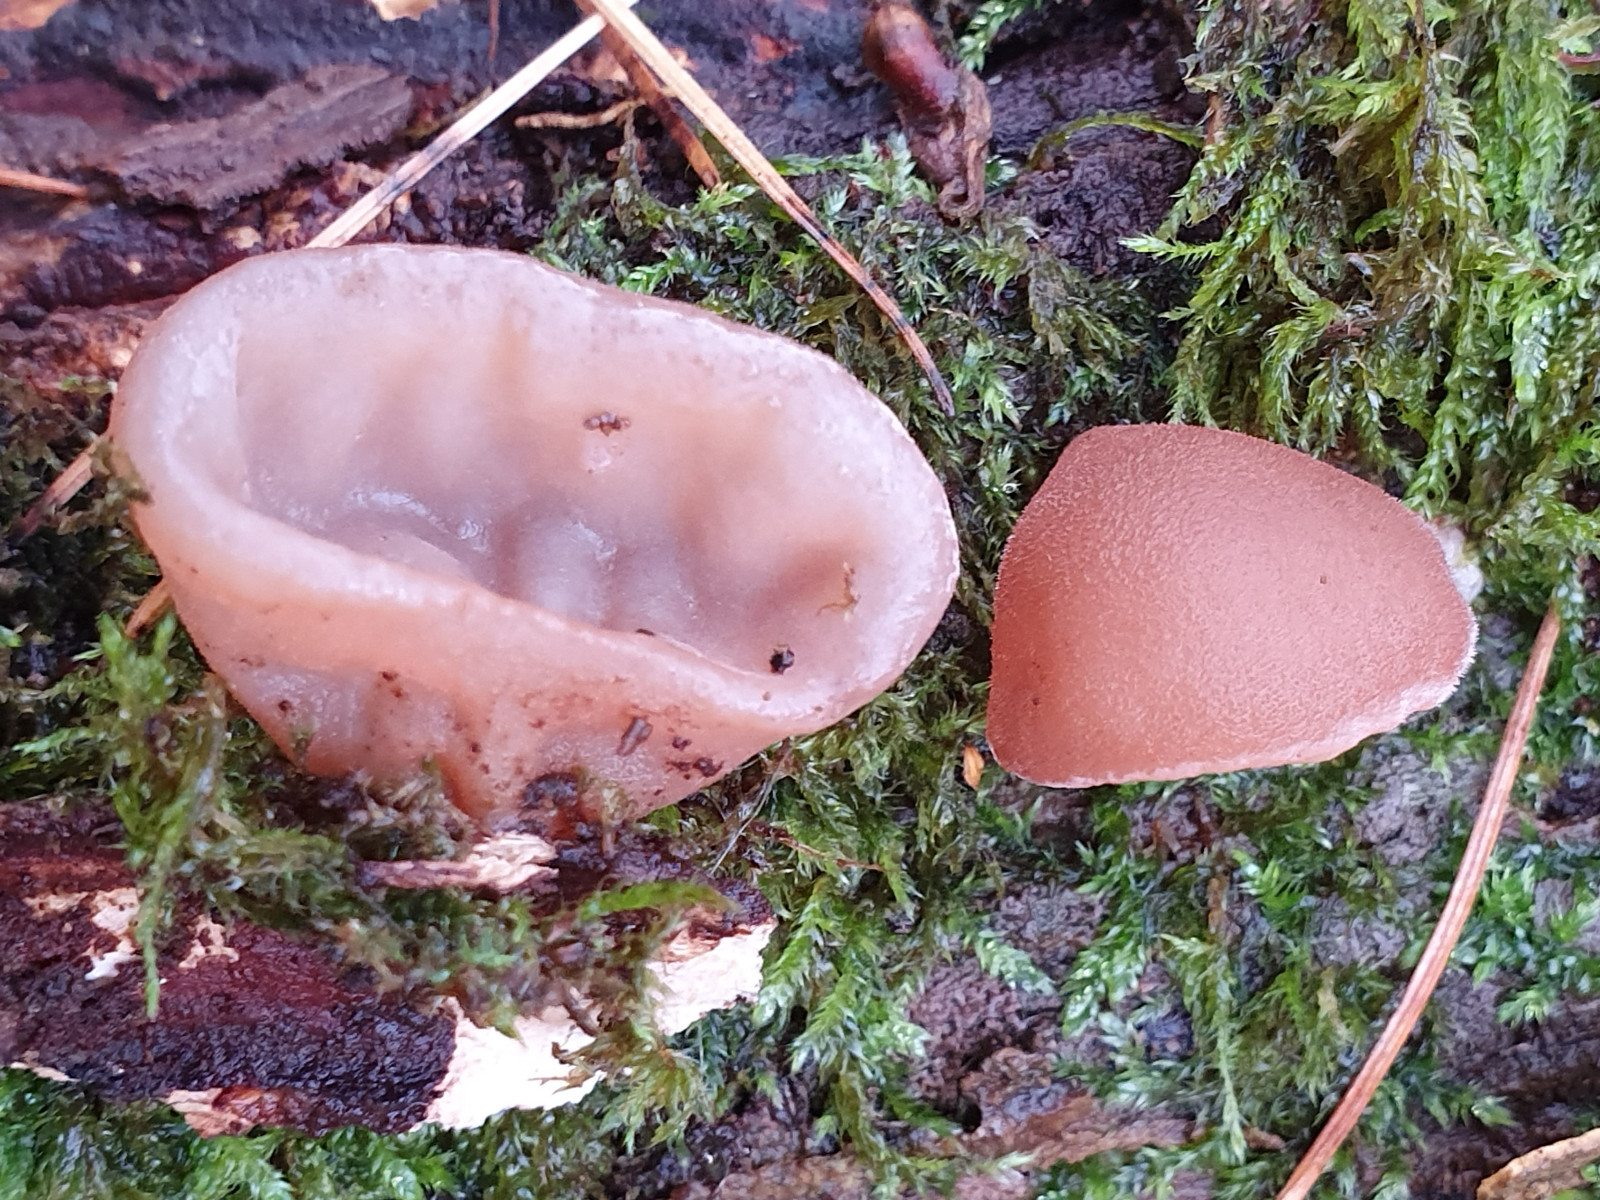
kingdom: Fungi
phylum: Basidiomycota
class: Agaricomycetes
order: Auriculariales
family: Auriculariaceae
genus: Auricularia
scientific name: Auricularia auricula-judae
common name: almindelig judasøre
